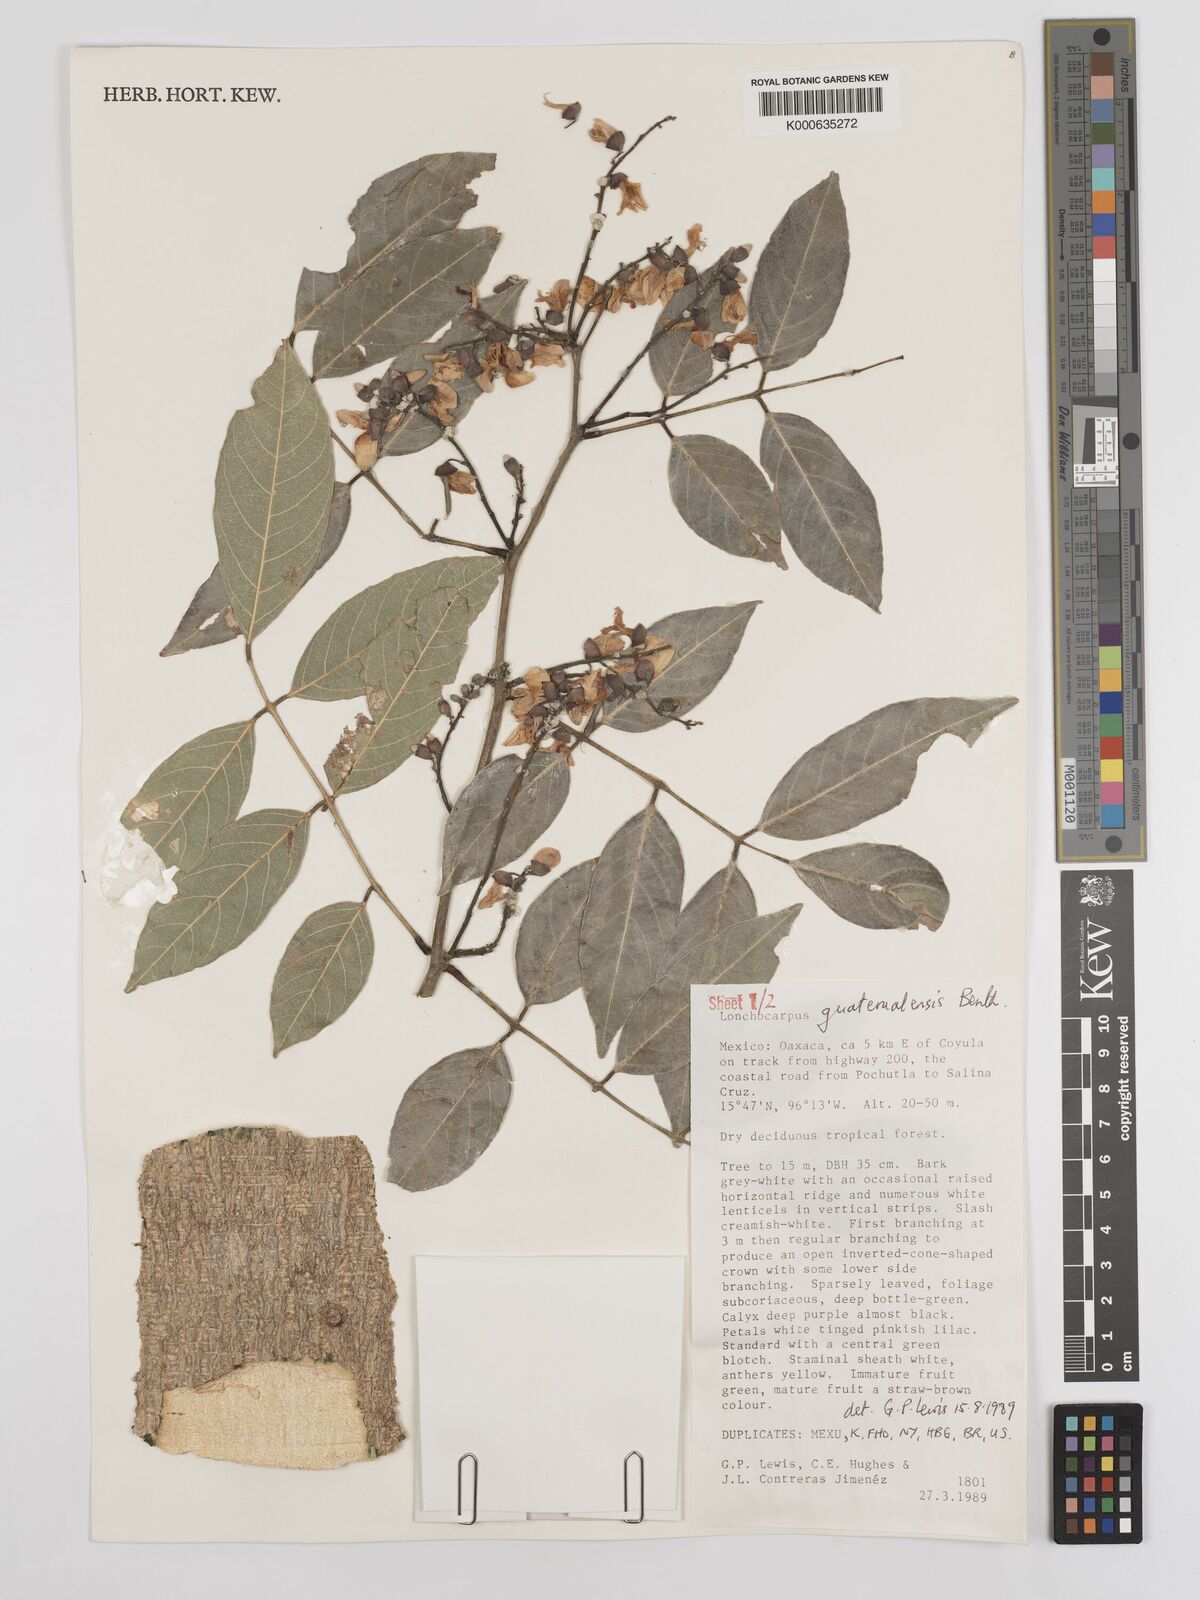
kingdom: Plantae
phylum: Tracheophyta
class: Magnoliopsida
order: Fabales
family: Fabaceae
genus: Lonchocarpus
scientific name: Lonchocarpus guatemalensis
